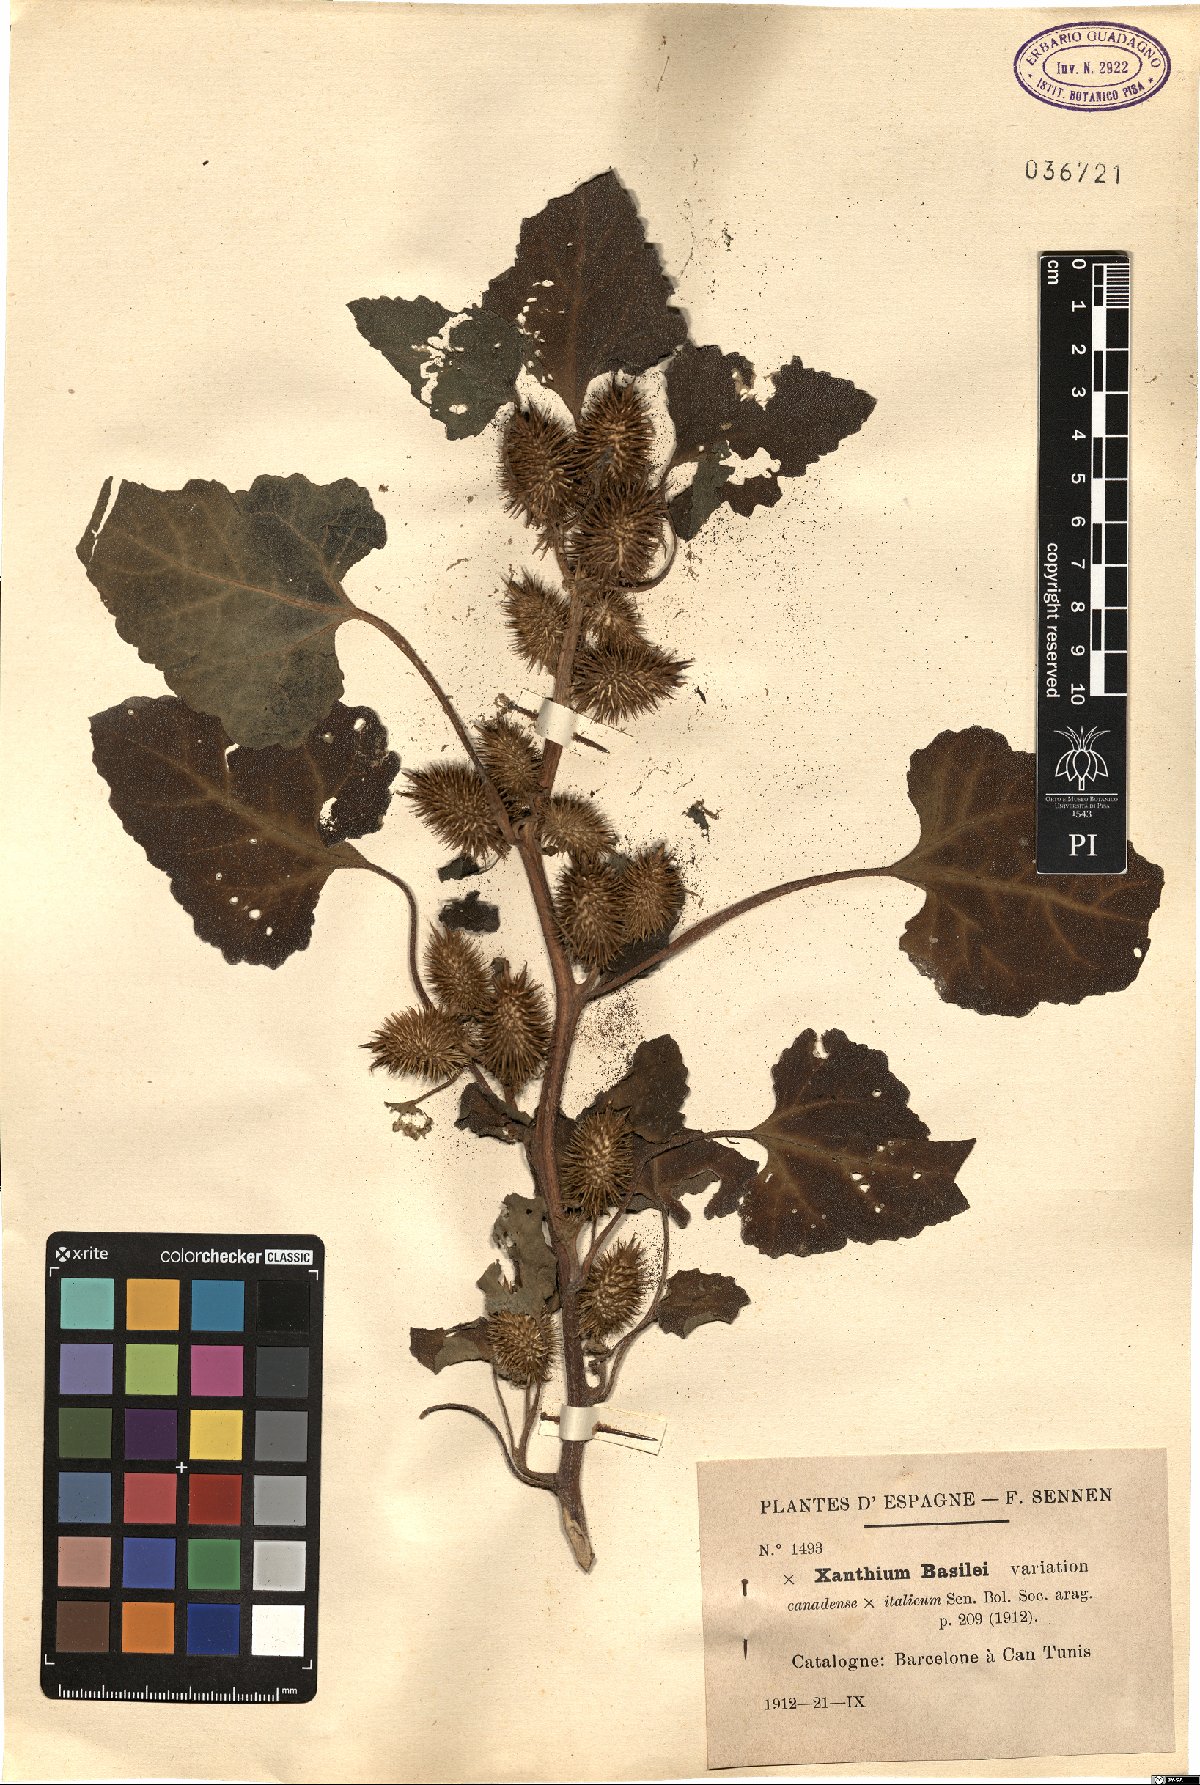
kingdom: Plantae
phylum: Tracheophyta
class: Magnoliopsida
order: Asterales
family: Asteraceae
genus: Xanthium
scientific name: Xanthium basilei
